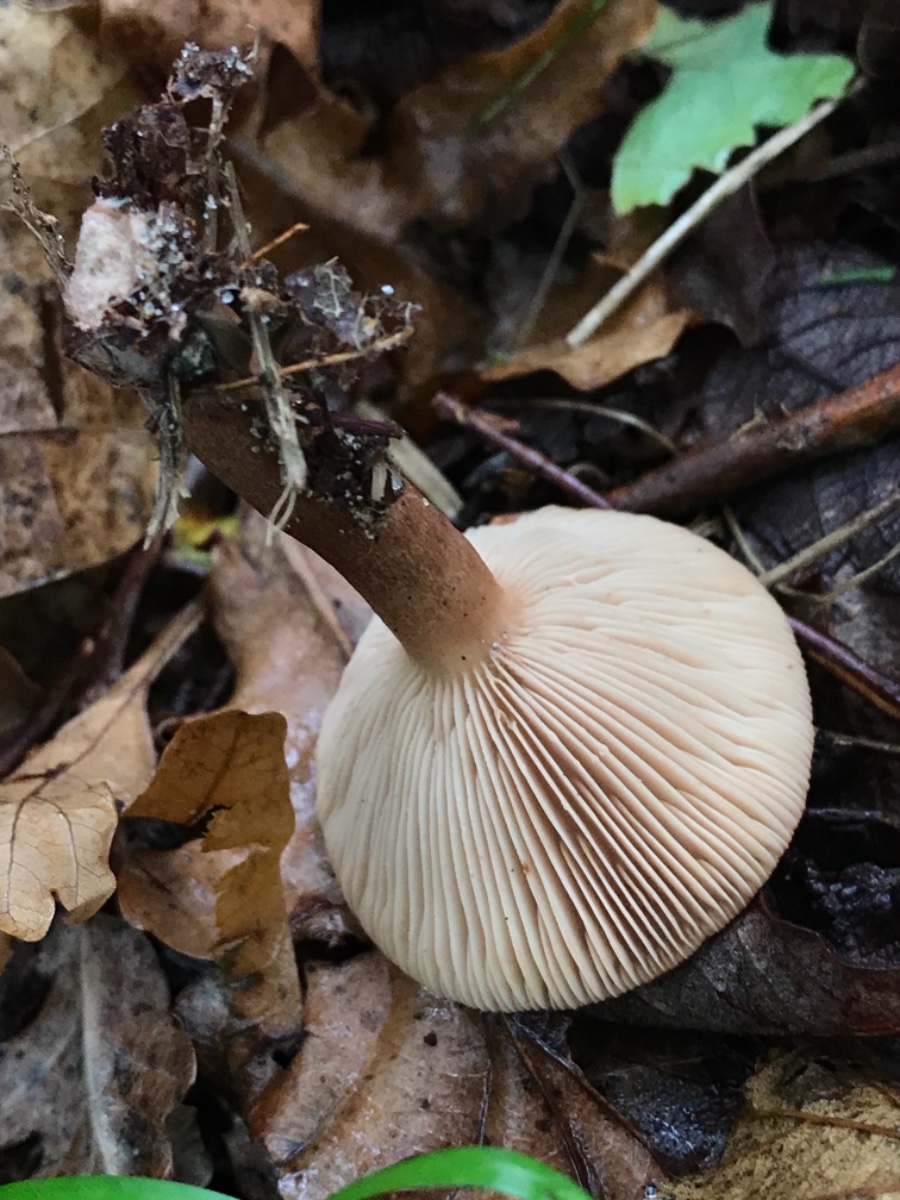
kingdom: Fungi
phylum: Basidiomycota
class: Agaricomycetes
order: Russulales
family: Russulaceae
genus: Lactarius
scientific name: Lactarius quietus
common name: ege-mælkehat
